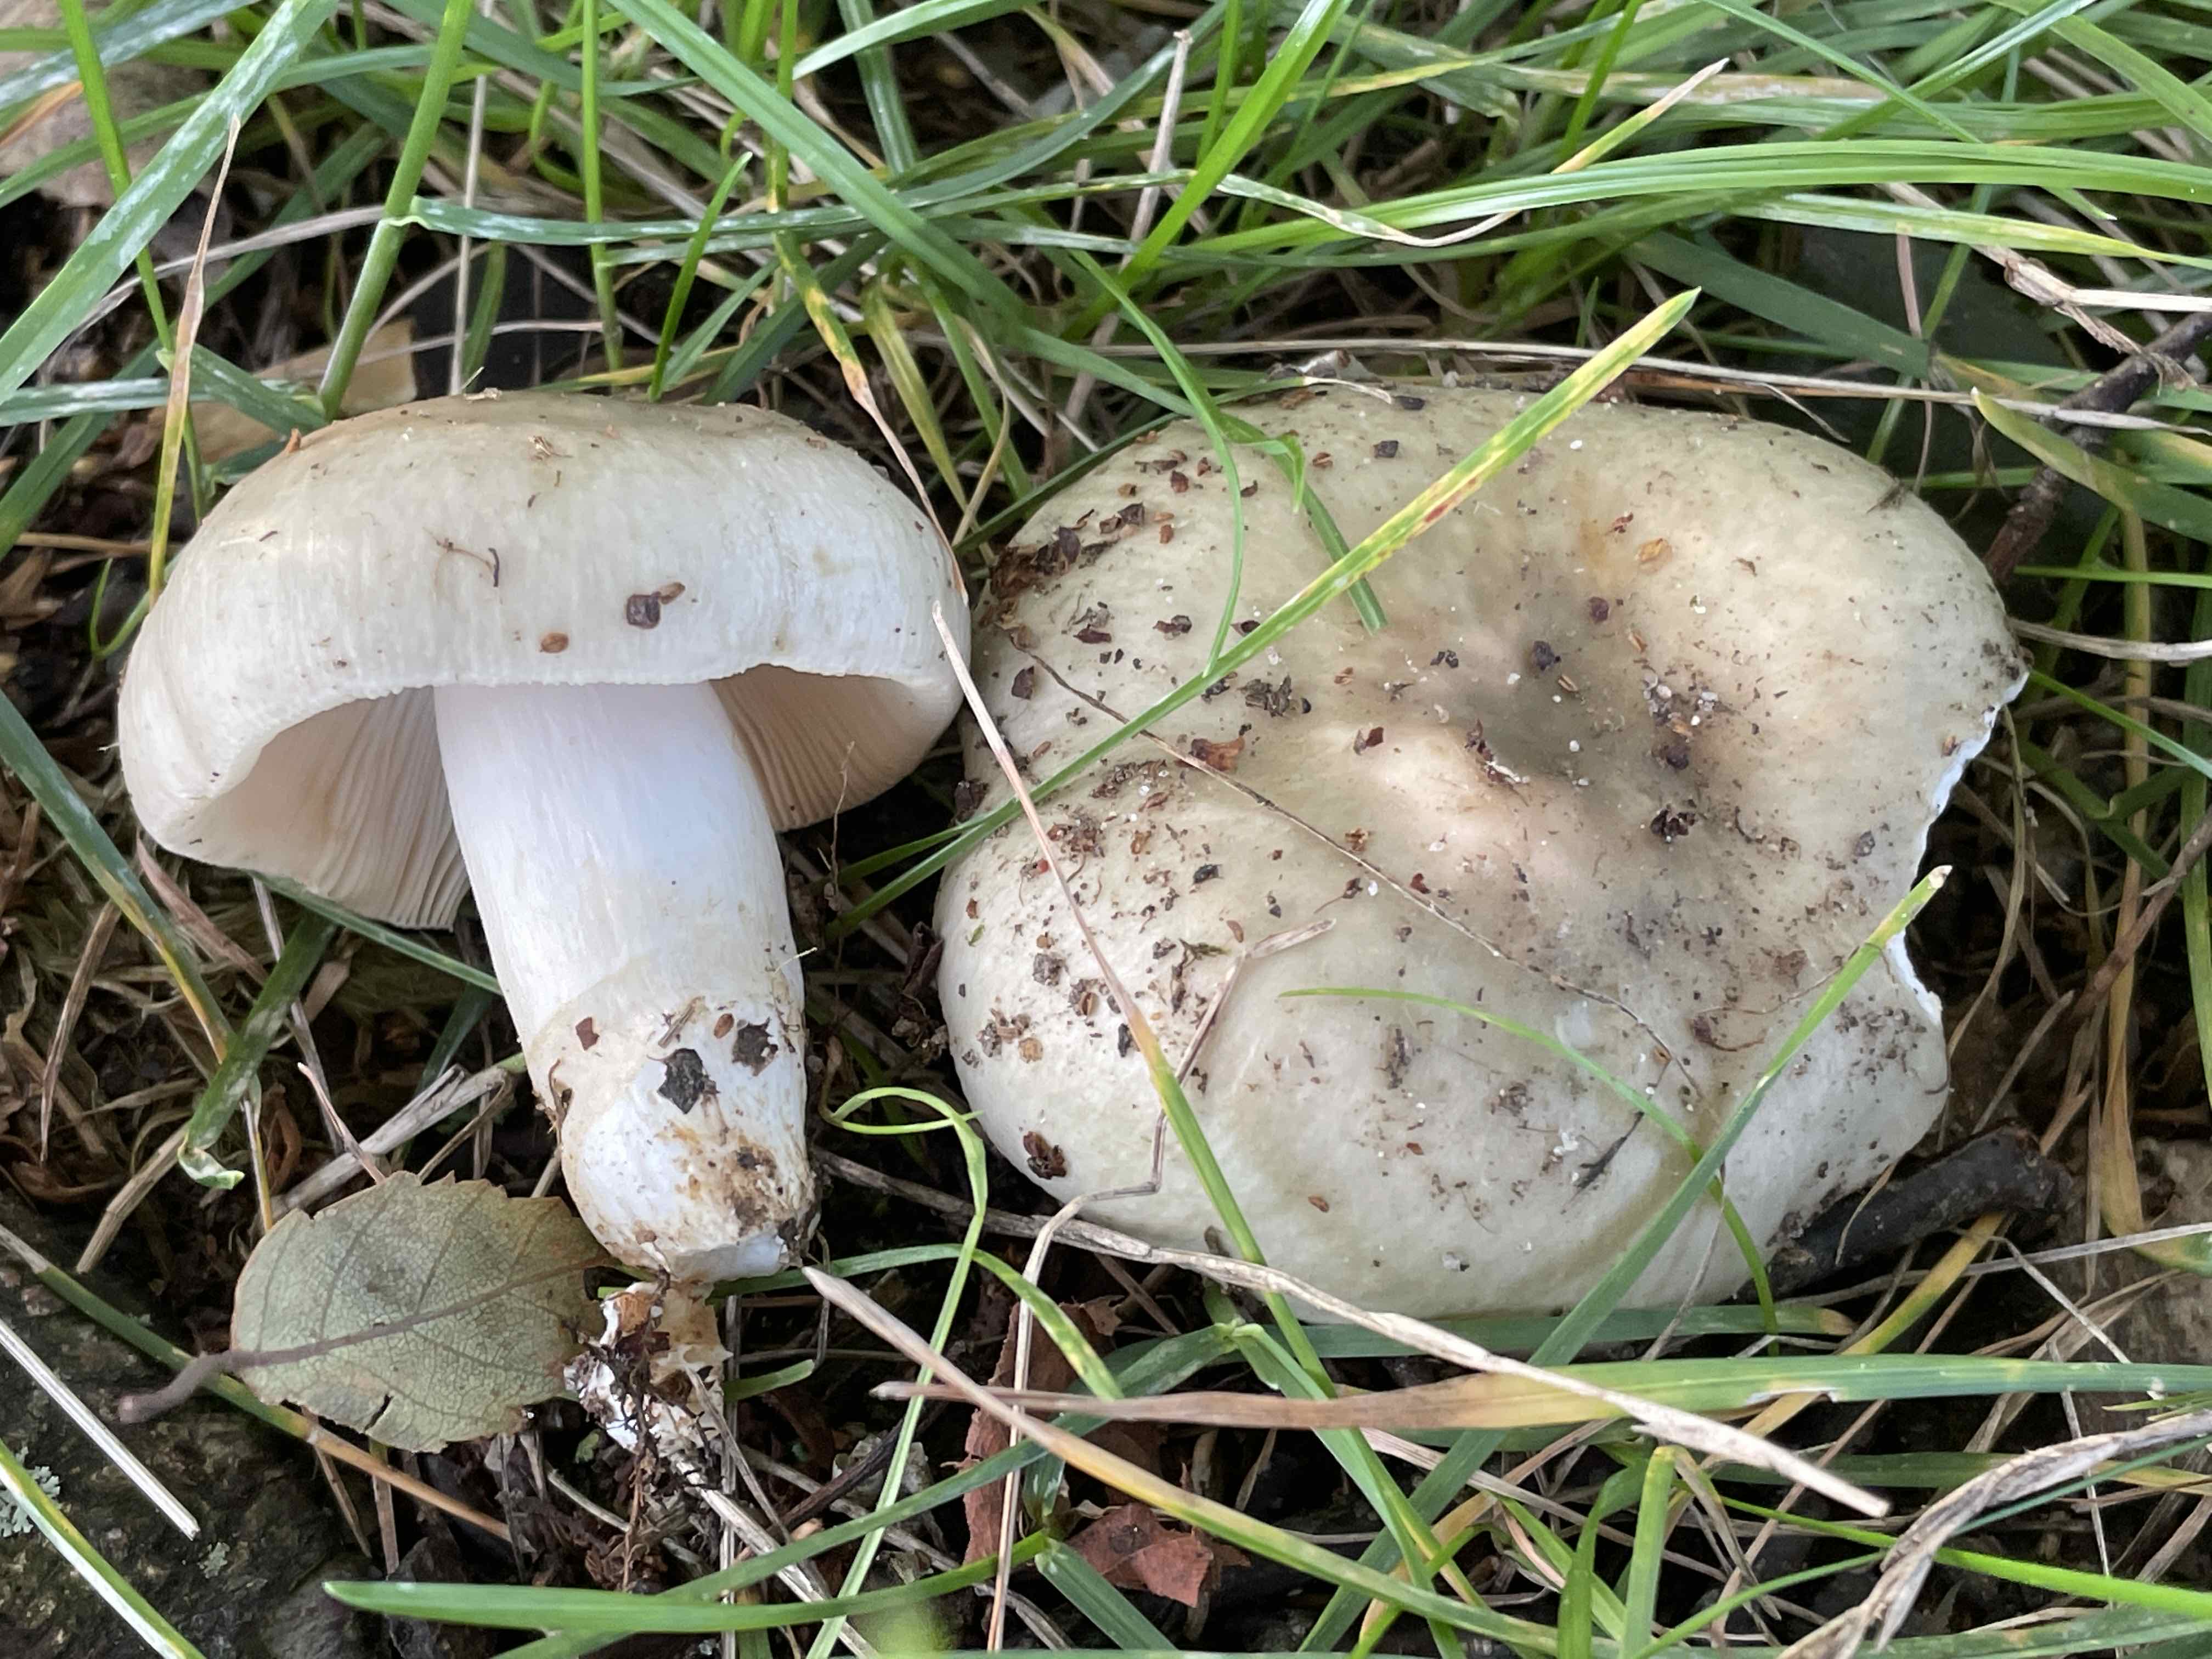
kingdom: Fungi
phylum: Basidiomycota
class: Agaricomycetes
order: Russulales
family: Russulaceae
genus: Russula
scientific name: Russula aeruginea
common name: græsgrøn skørhat
